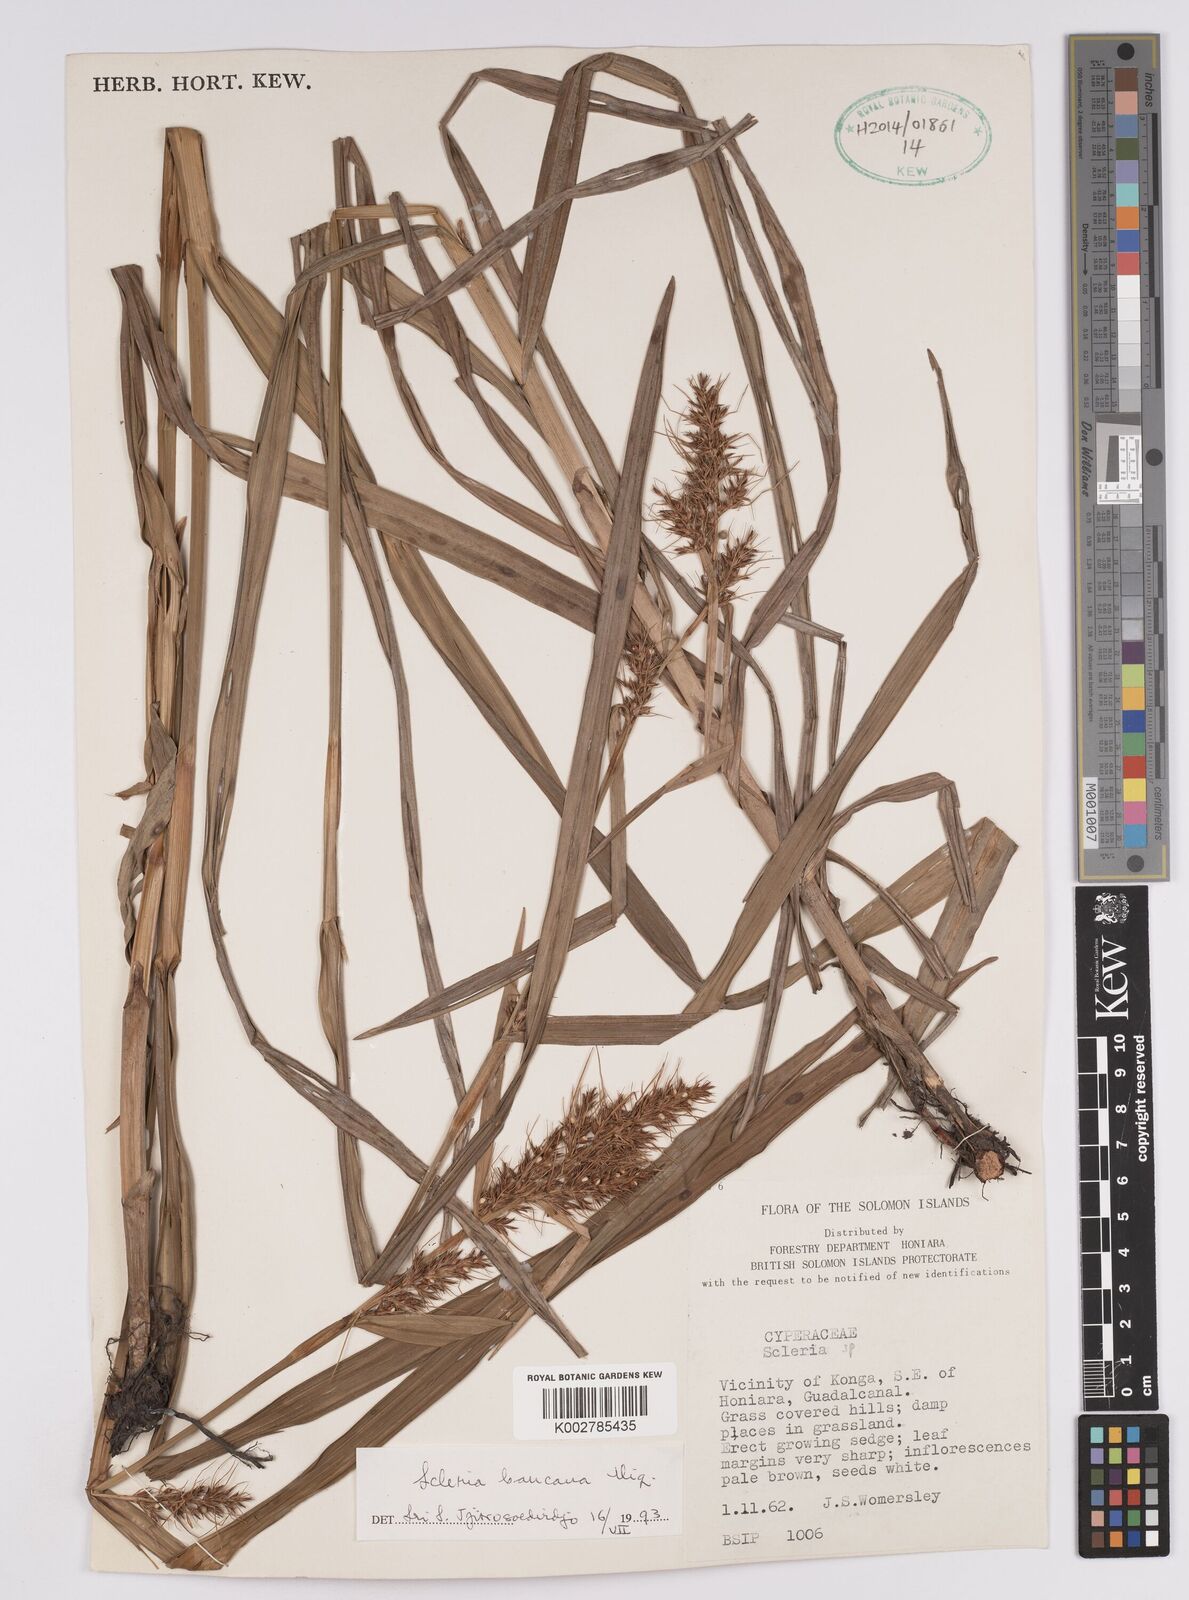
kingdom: Plantae
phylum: Tracheophyta
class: Liliopsida
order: Poales
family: Cyperaceae
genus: Scleria
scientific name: Scleria ciliaris
